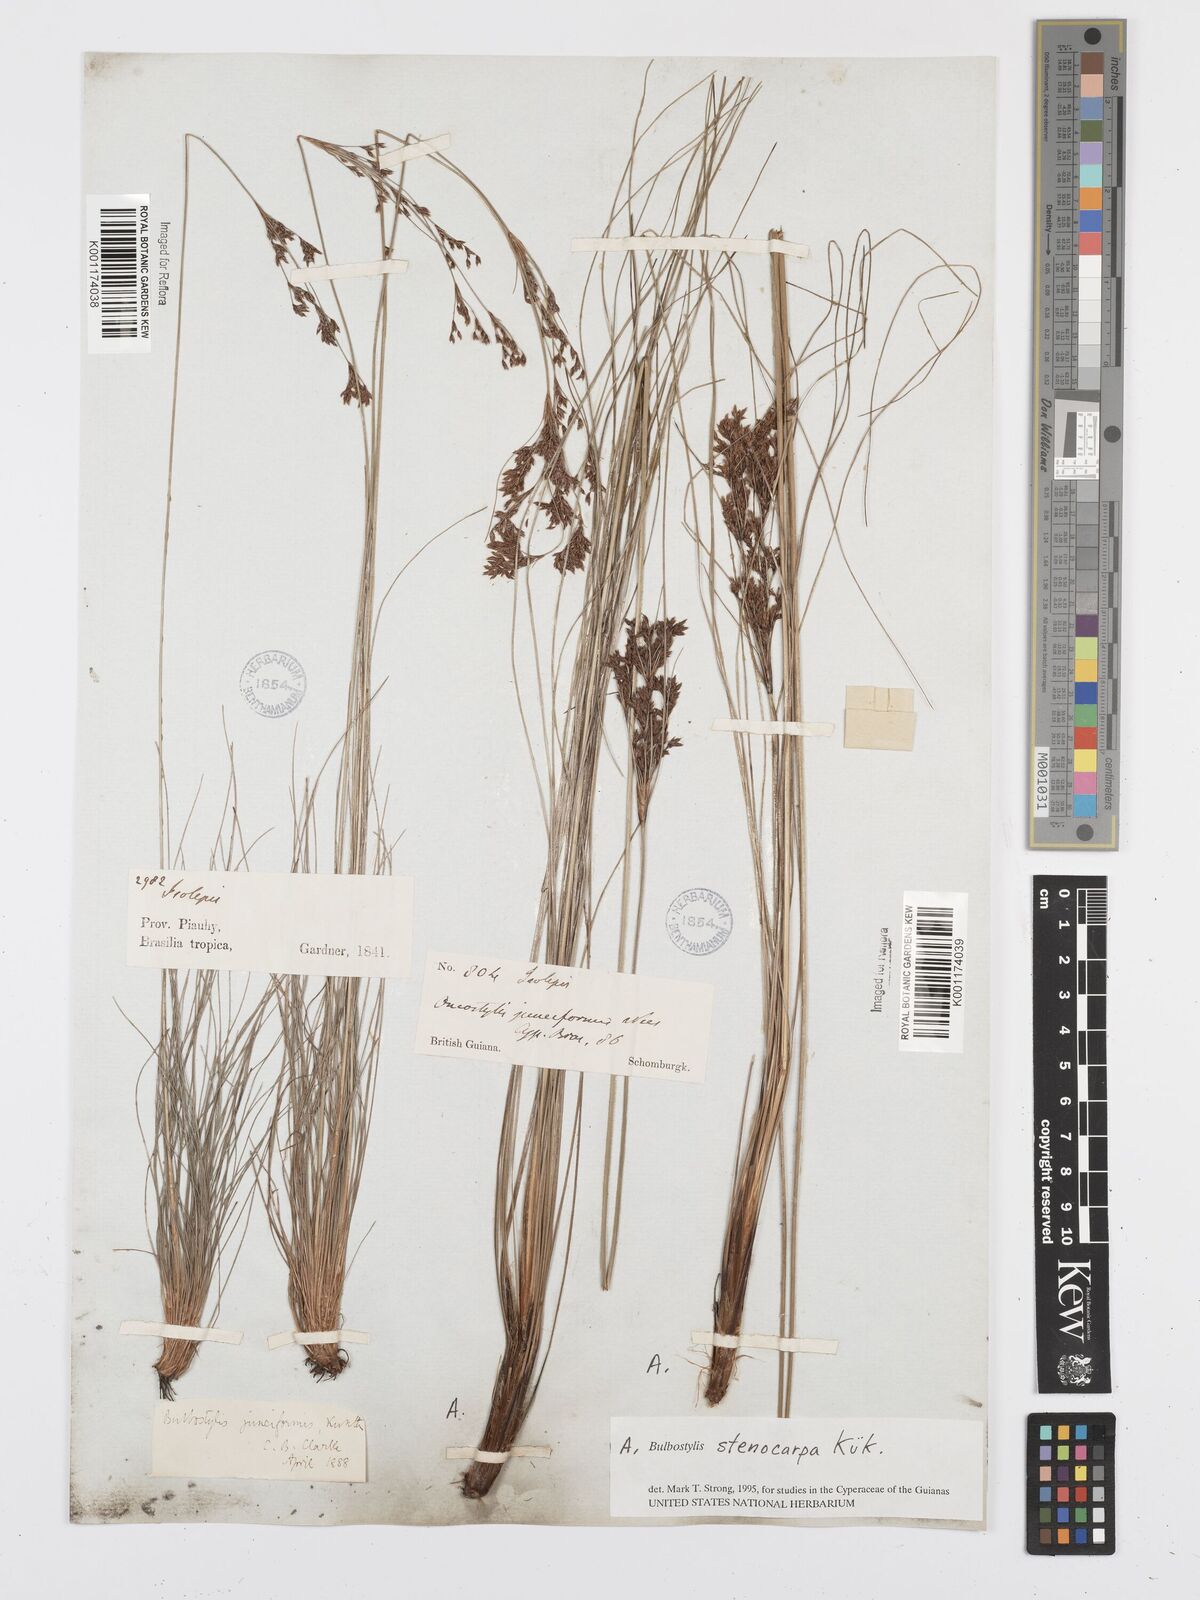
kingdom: Plantae
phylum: Tracheophyta
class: Liliopsida
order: Poales
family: Cyperaceae
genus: Bulbostylis
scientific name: Bulbostylis stenocarpa
